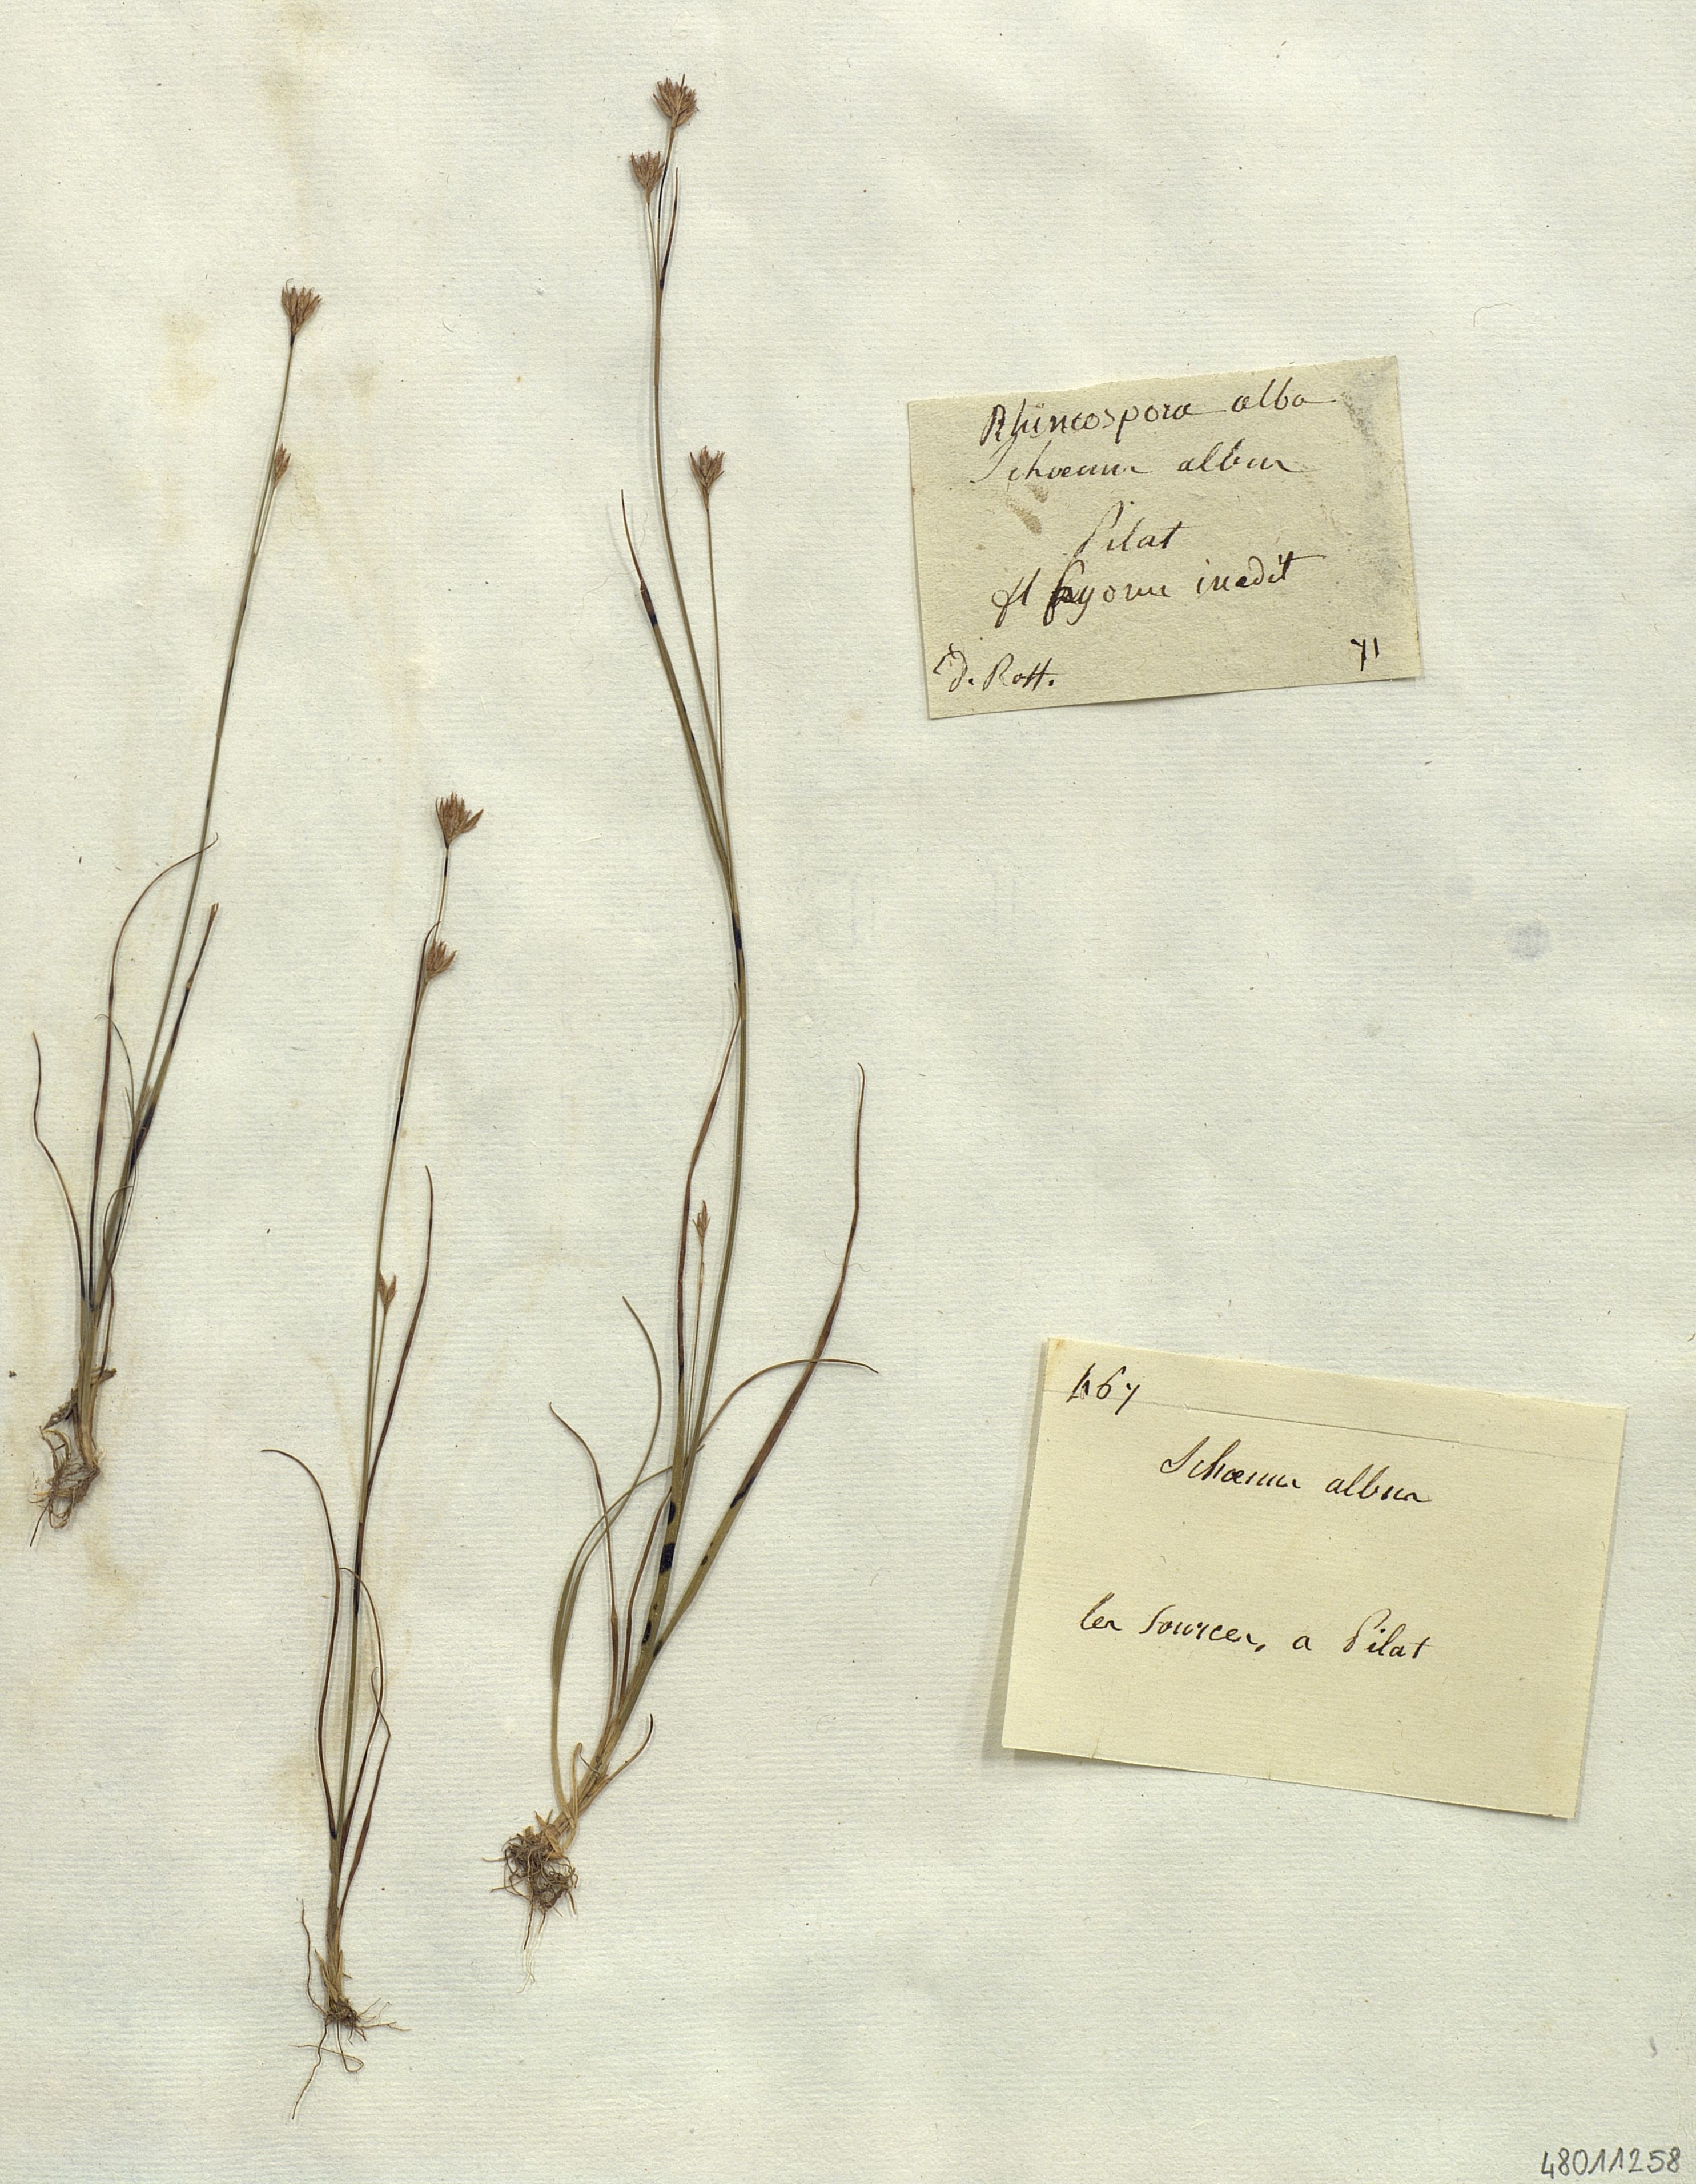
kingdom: Plantae
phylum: Tracheophyta
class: Liliopsida
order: Poales
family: Cyperaceae
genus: Rhynchospora
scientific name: Rhynchospora alba
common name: White beak-sedge
